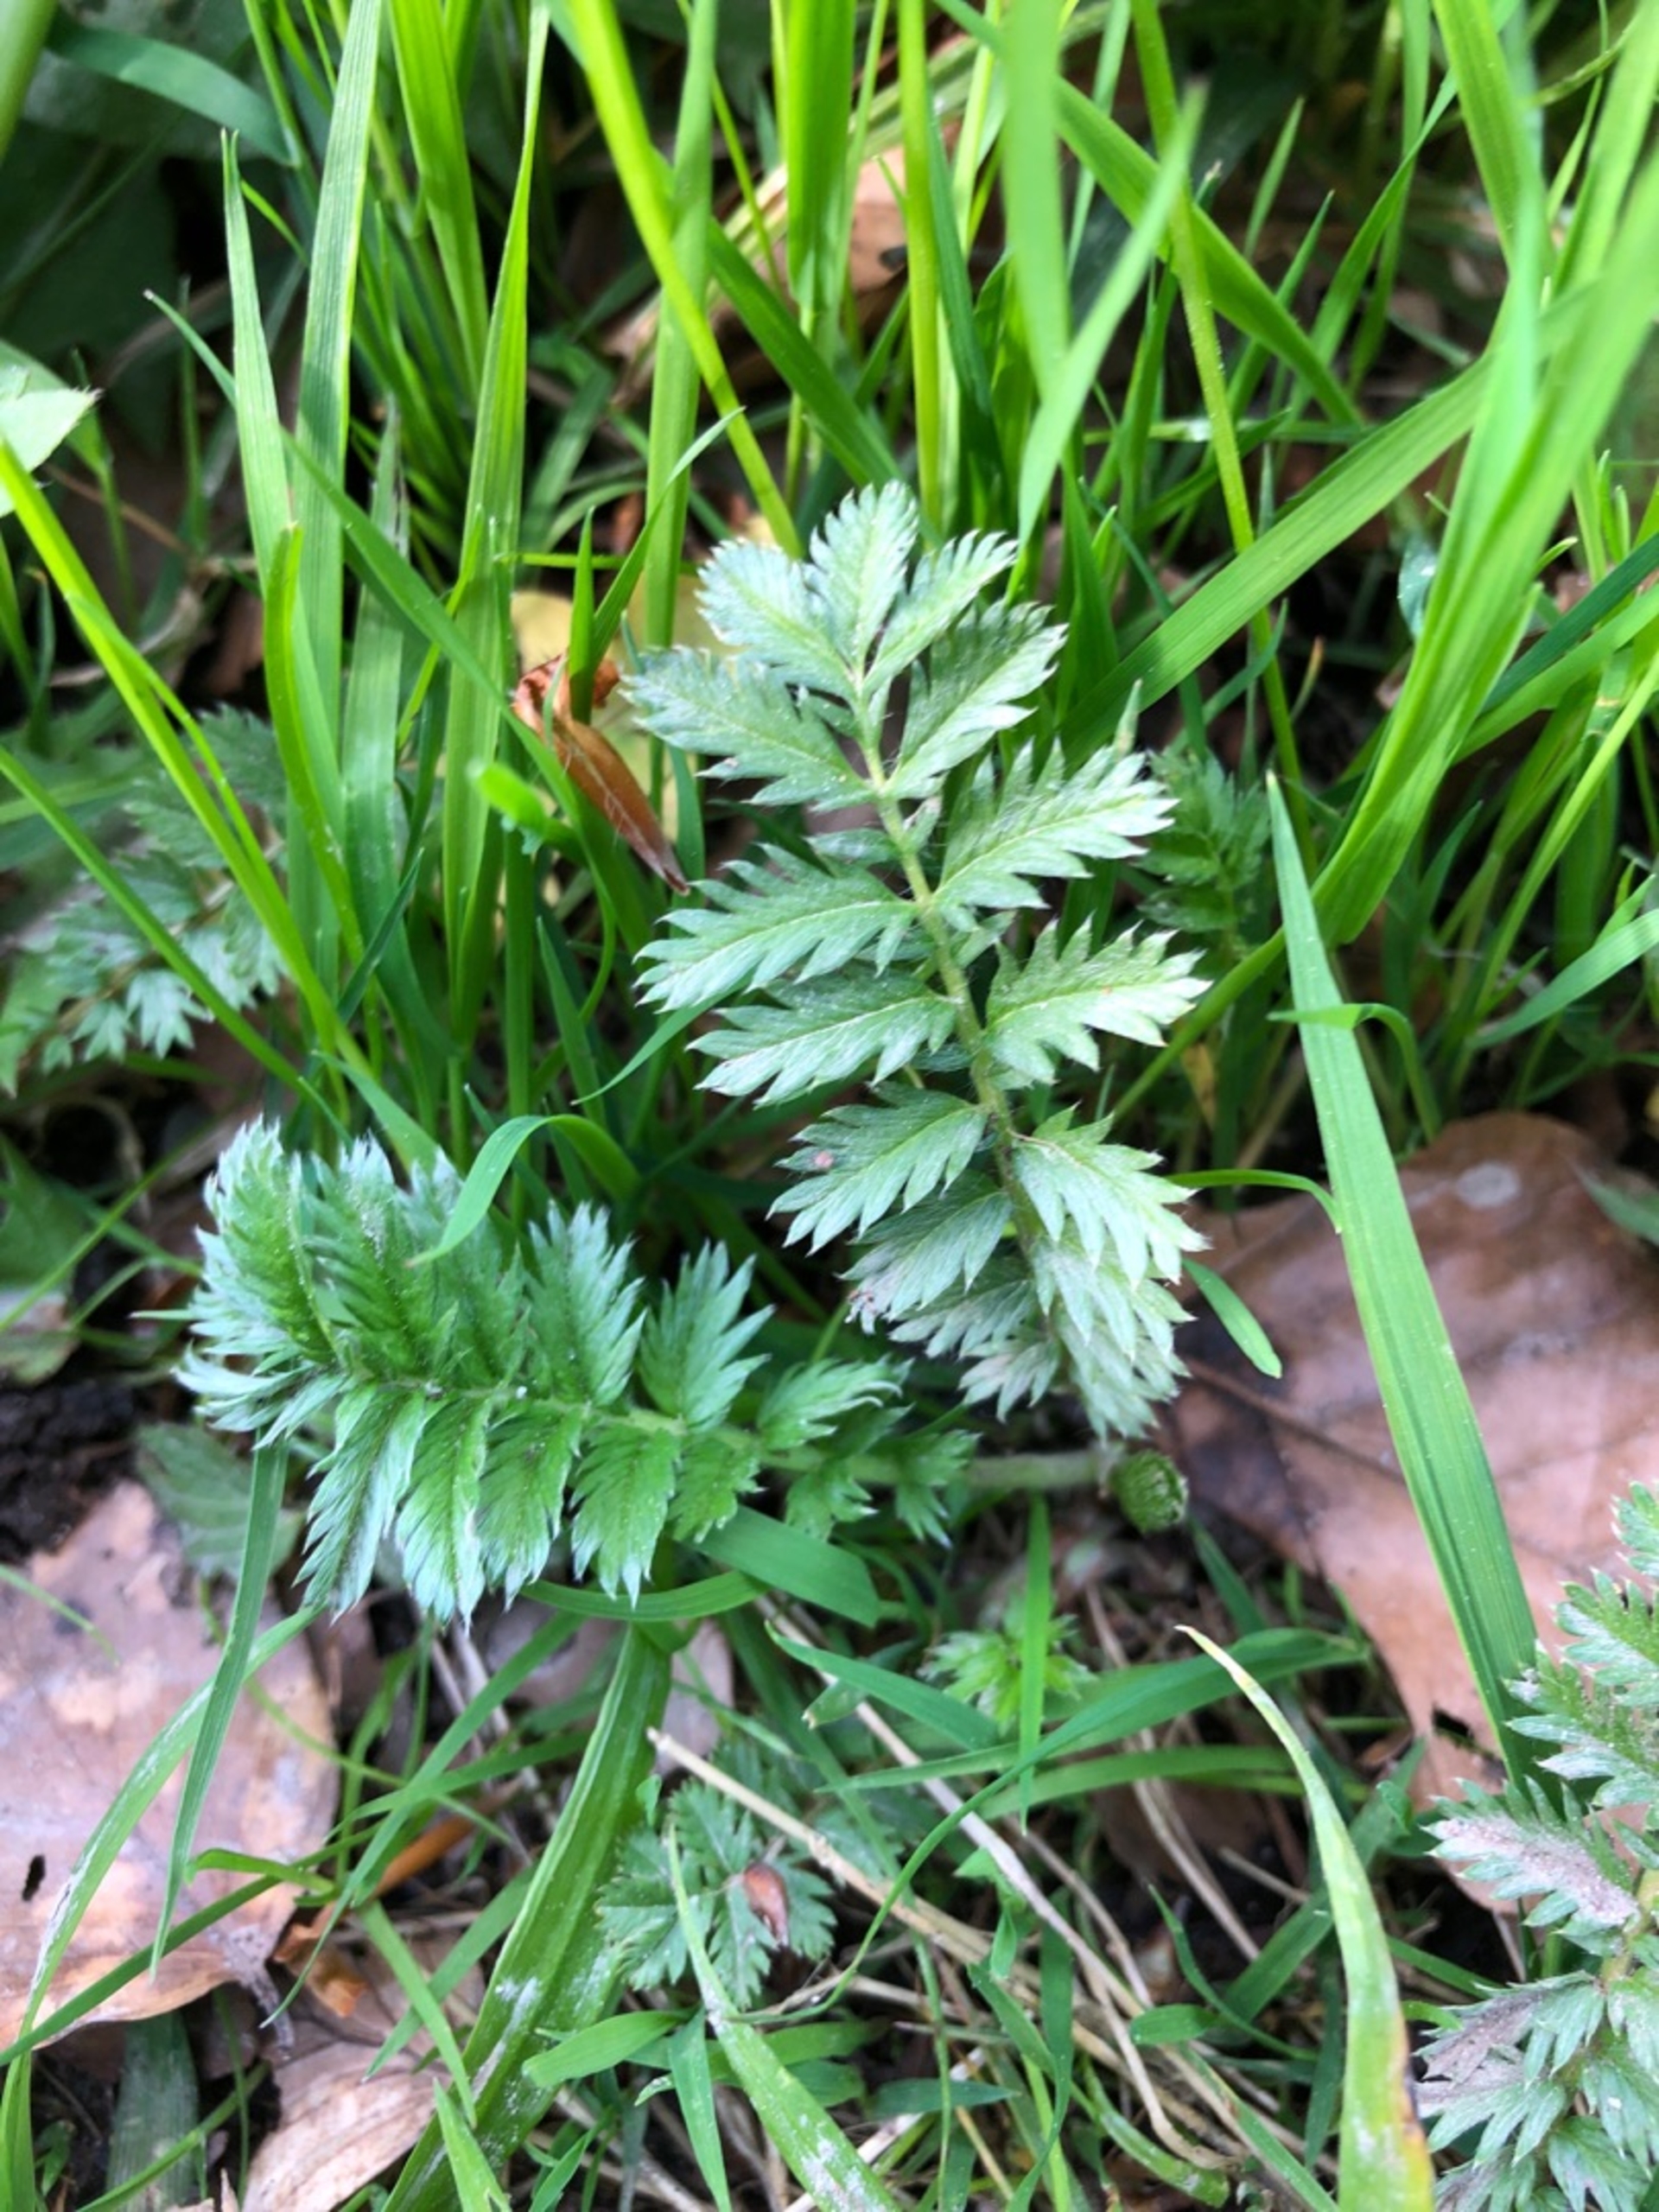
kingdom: Plantae
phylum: Tracheophyta
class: Magnoliopsida
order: Rosales
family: Rosaceae
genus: Argentina
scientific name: Argentina anserina
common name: Gåsepotentil
